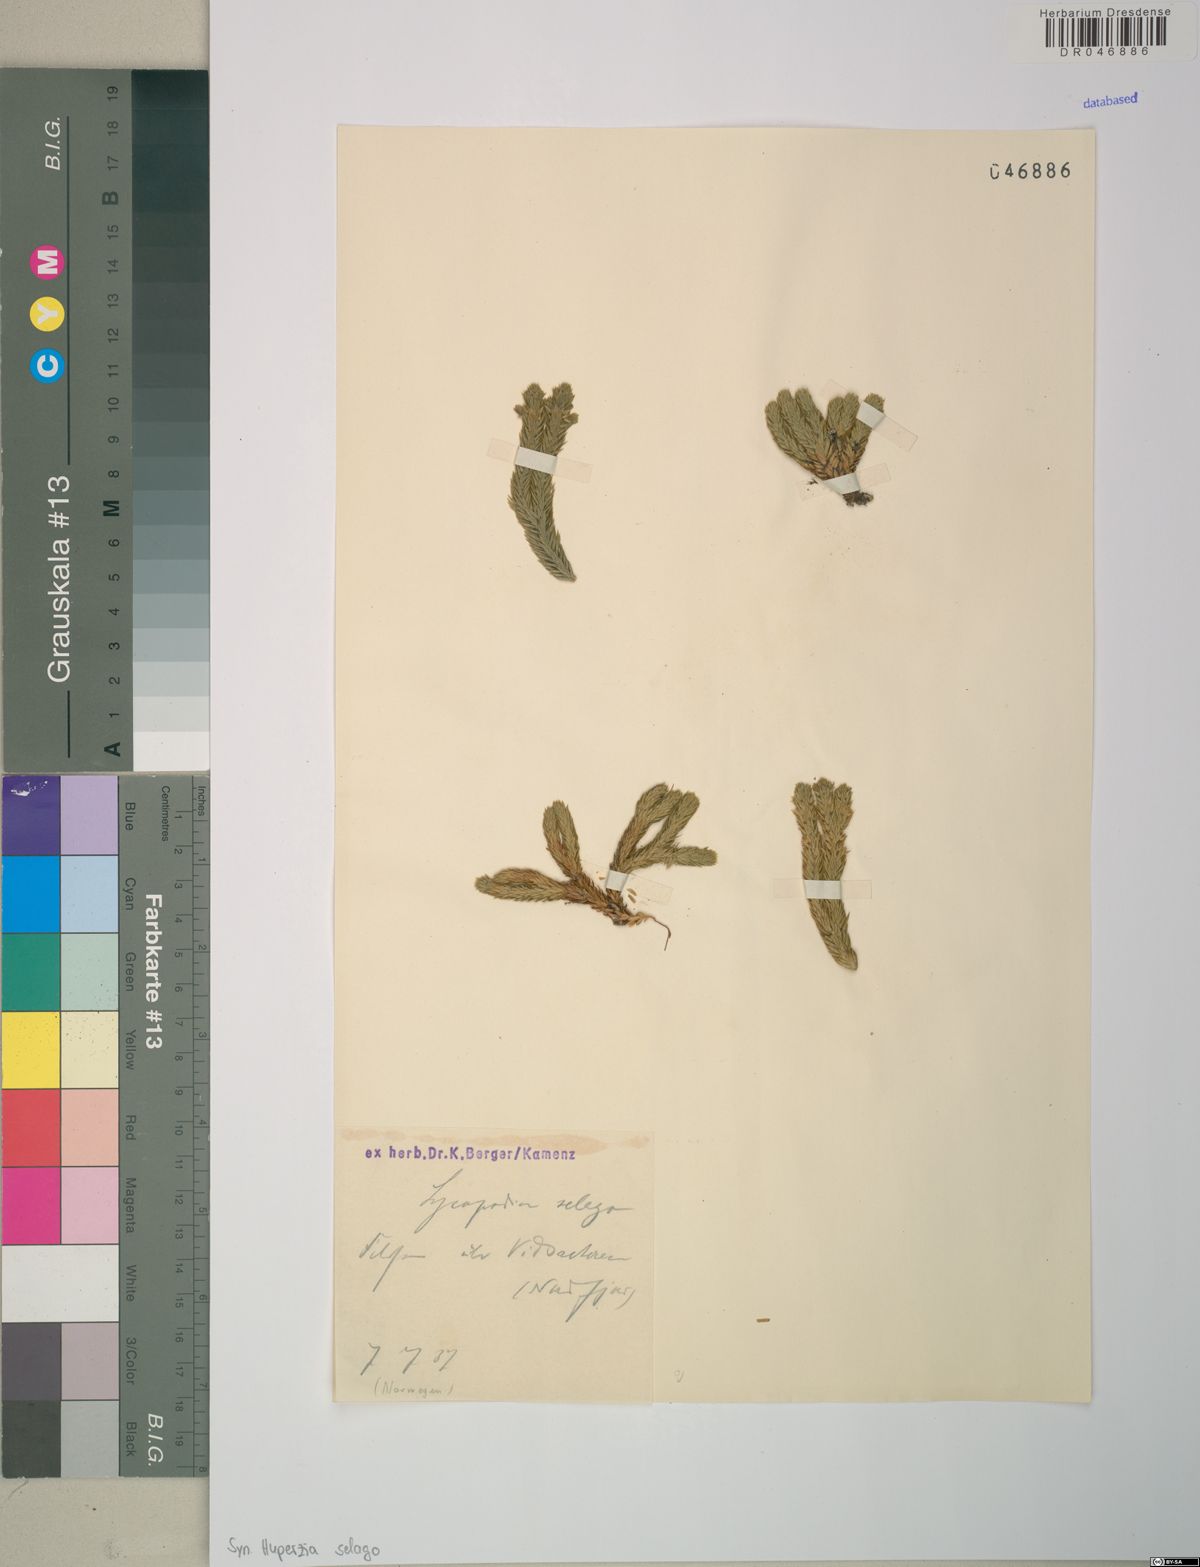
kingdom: Plantae
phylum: Tracheophyta
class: Lycopodiopsida
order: Lycopodiales
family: Lycopodiaceae
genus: Huperzia
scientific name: Huperzia selago
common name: Northern firmoss
